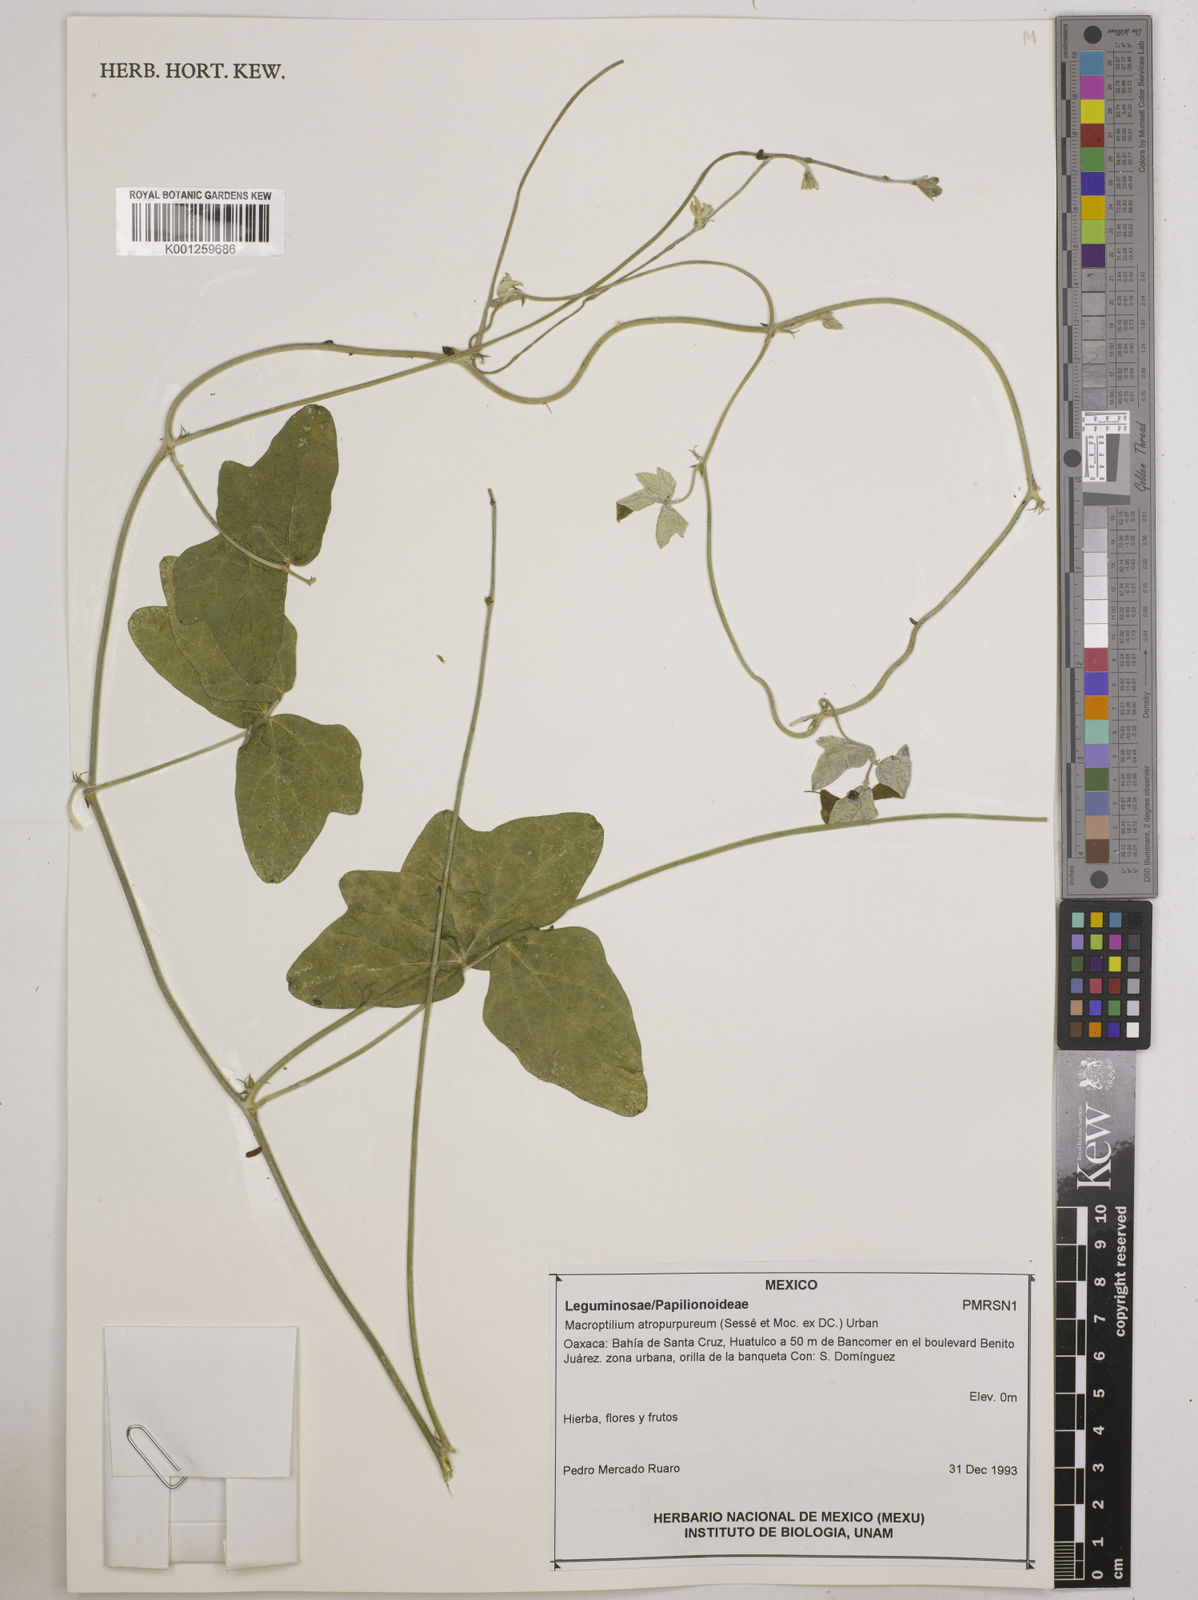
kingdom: Plantae
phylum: Tracheophyta
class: Magnoliopsida
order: Fabales
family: Fabaceae
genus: Macroptilium
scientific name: Macroptilium atropurpureum
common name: Purple bushbean
